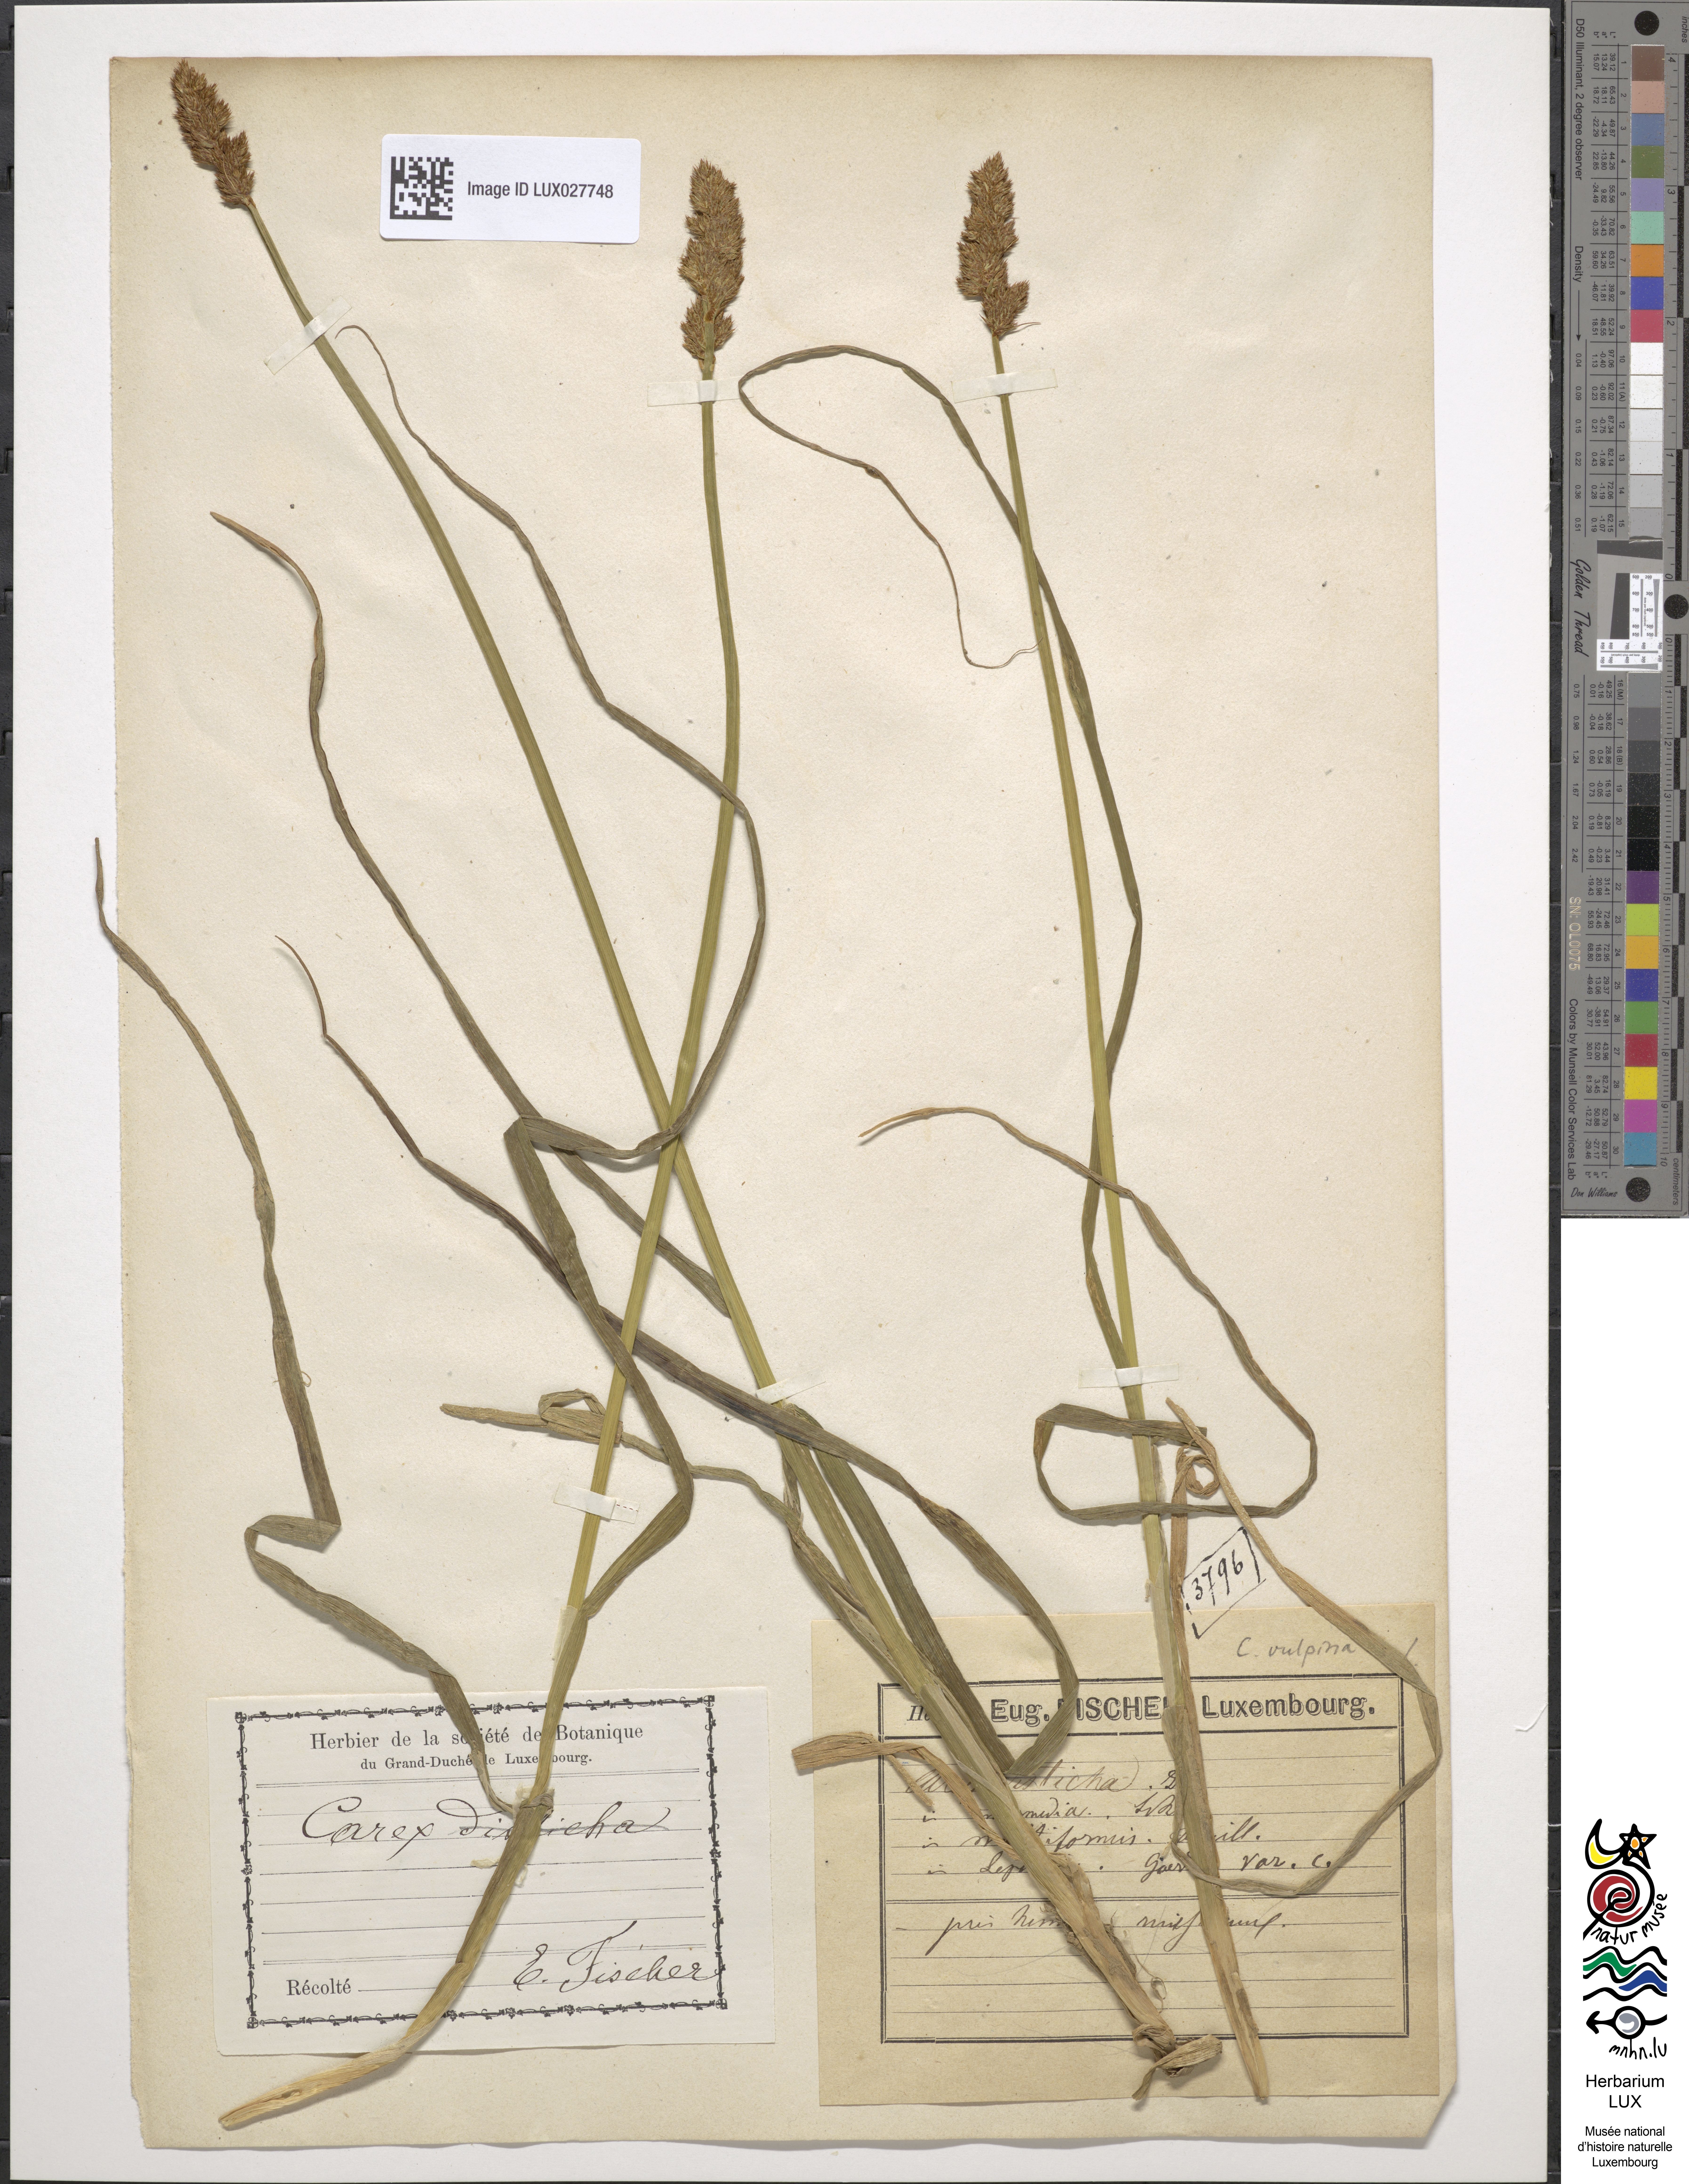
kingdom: Plantae
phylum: Tracheophyta
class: Liliopsida
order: Poales
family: Cyperaceae
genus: Carex
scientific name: Carex disticha
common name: Brown sedge
